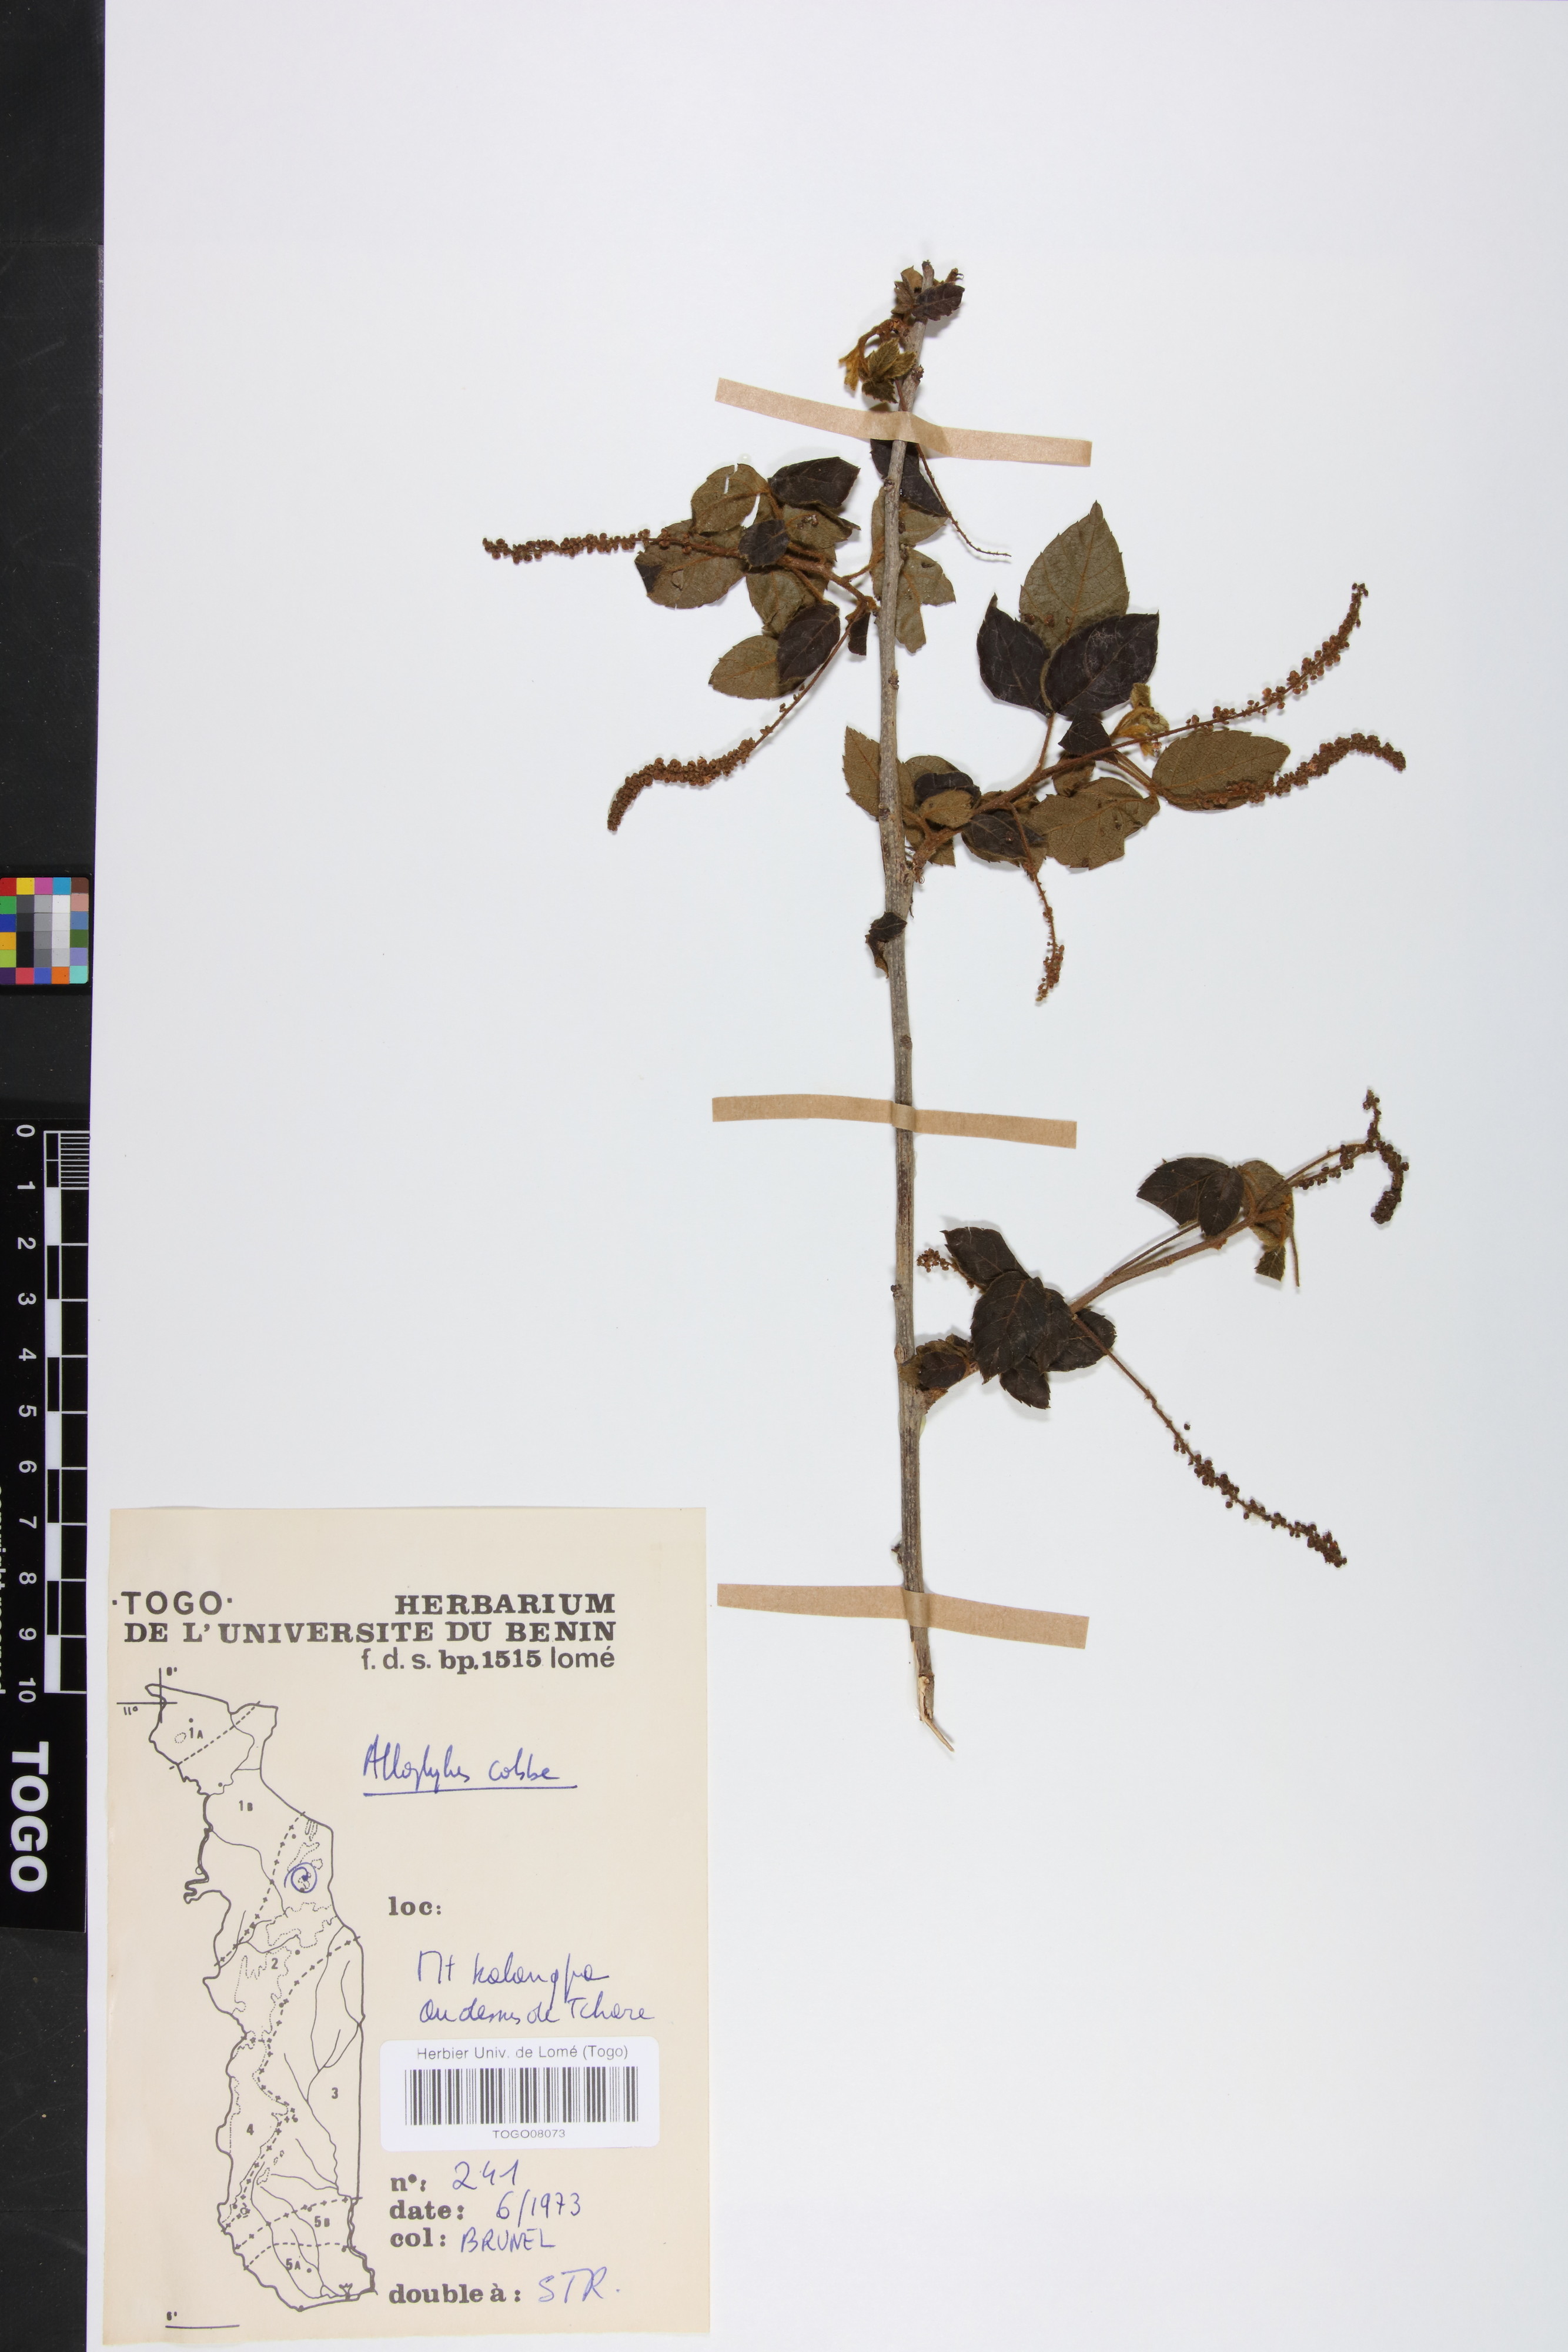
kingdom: Plantae
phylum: Tracheophyta
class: Magnoliopsida
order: Sapindales
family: Sapindaceae
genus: Allophylus
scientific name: Allophylus cobbe
